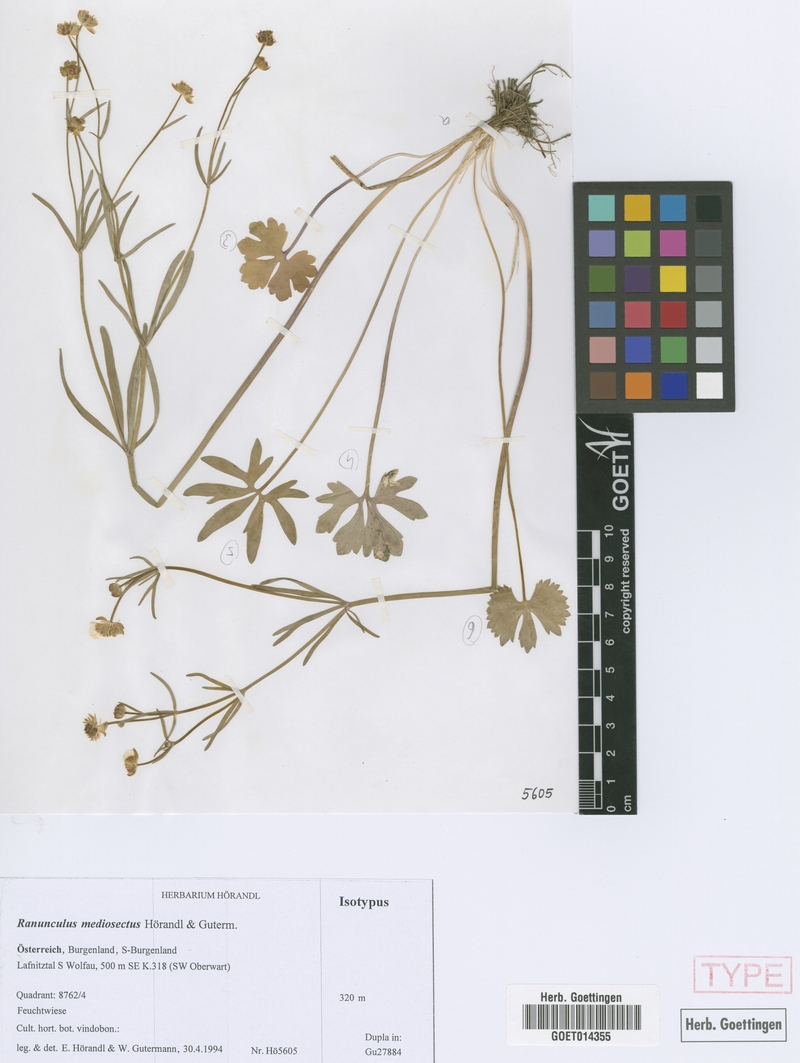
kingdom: Plantae
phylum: Tracheophyta
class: Magnoliopsida
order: Ranunculales
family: Ranunculaceae
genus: Ranunculus
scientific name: Ranunculus mediosectus
